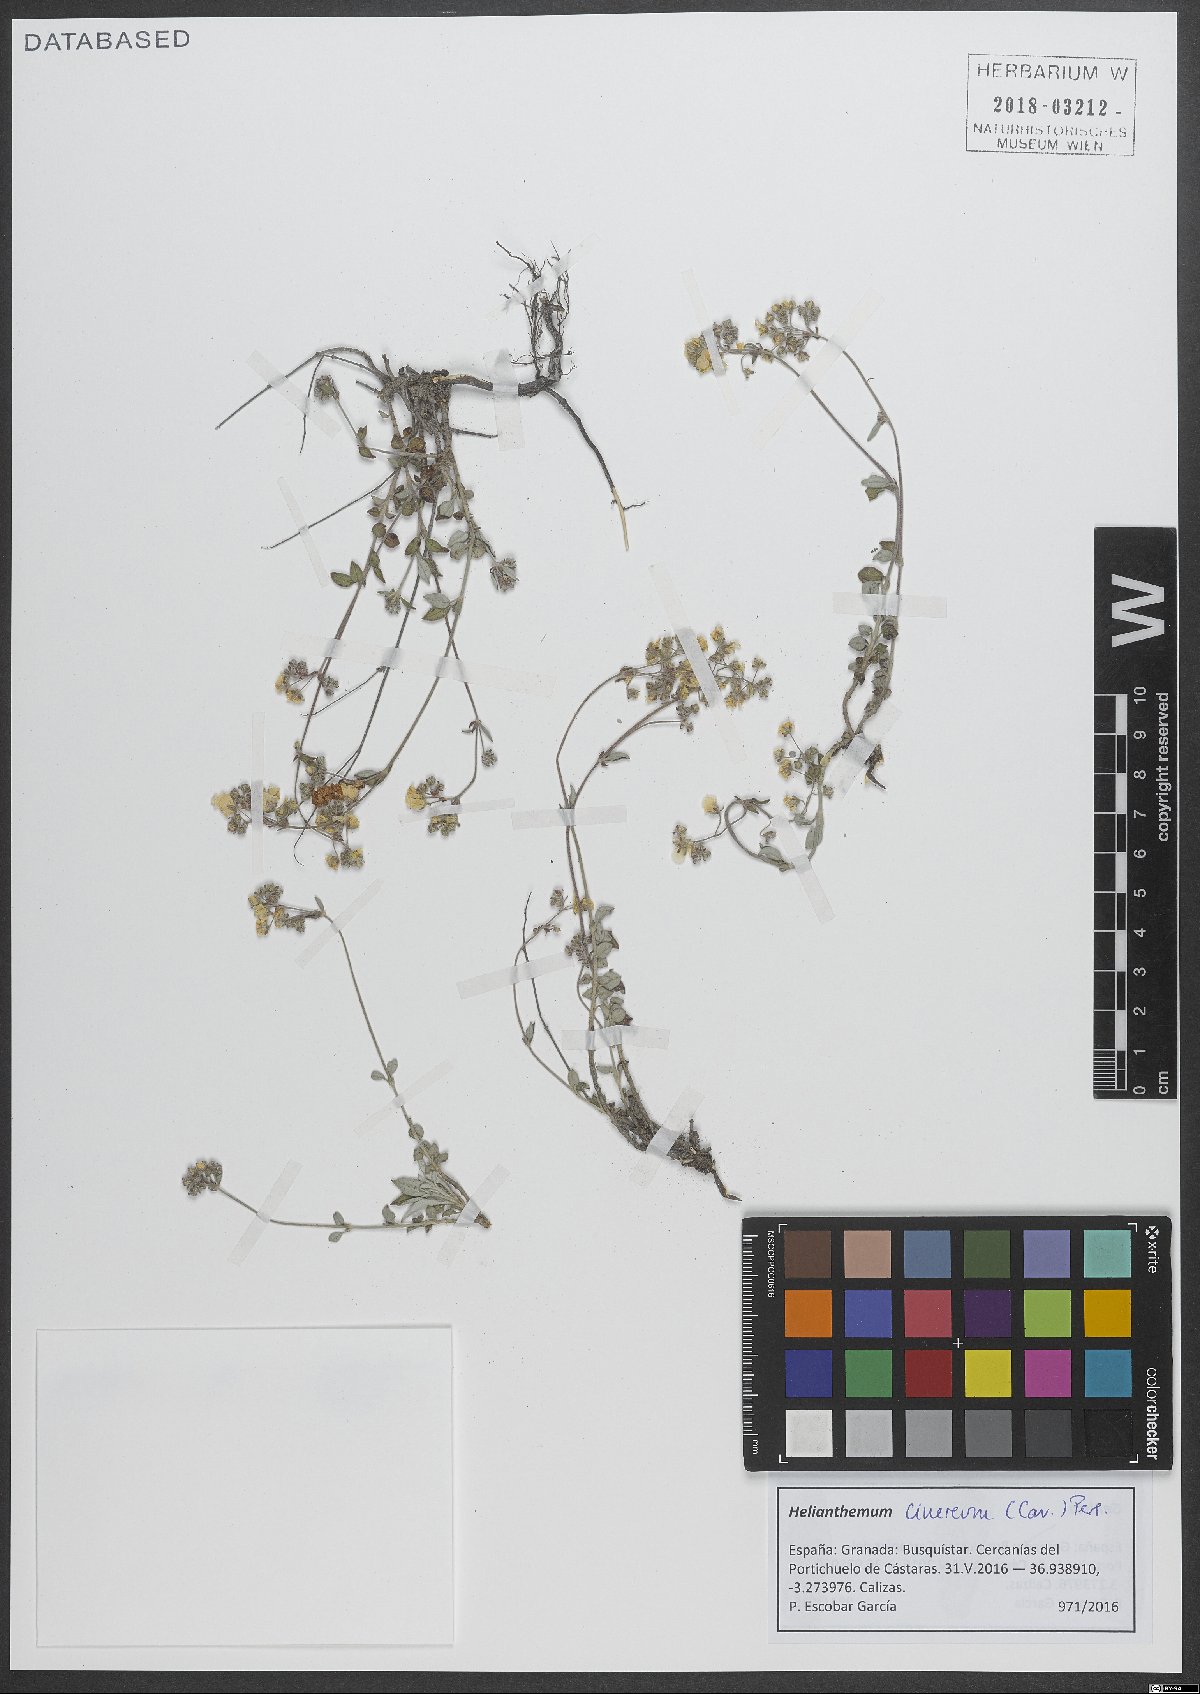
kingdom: Plantae
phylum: Tracheophyta
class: Magnoliopsida
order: Malvales
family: Cistaceae
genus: Helianthemum
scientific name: Helianthemum cinereum
